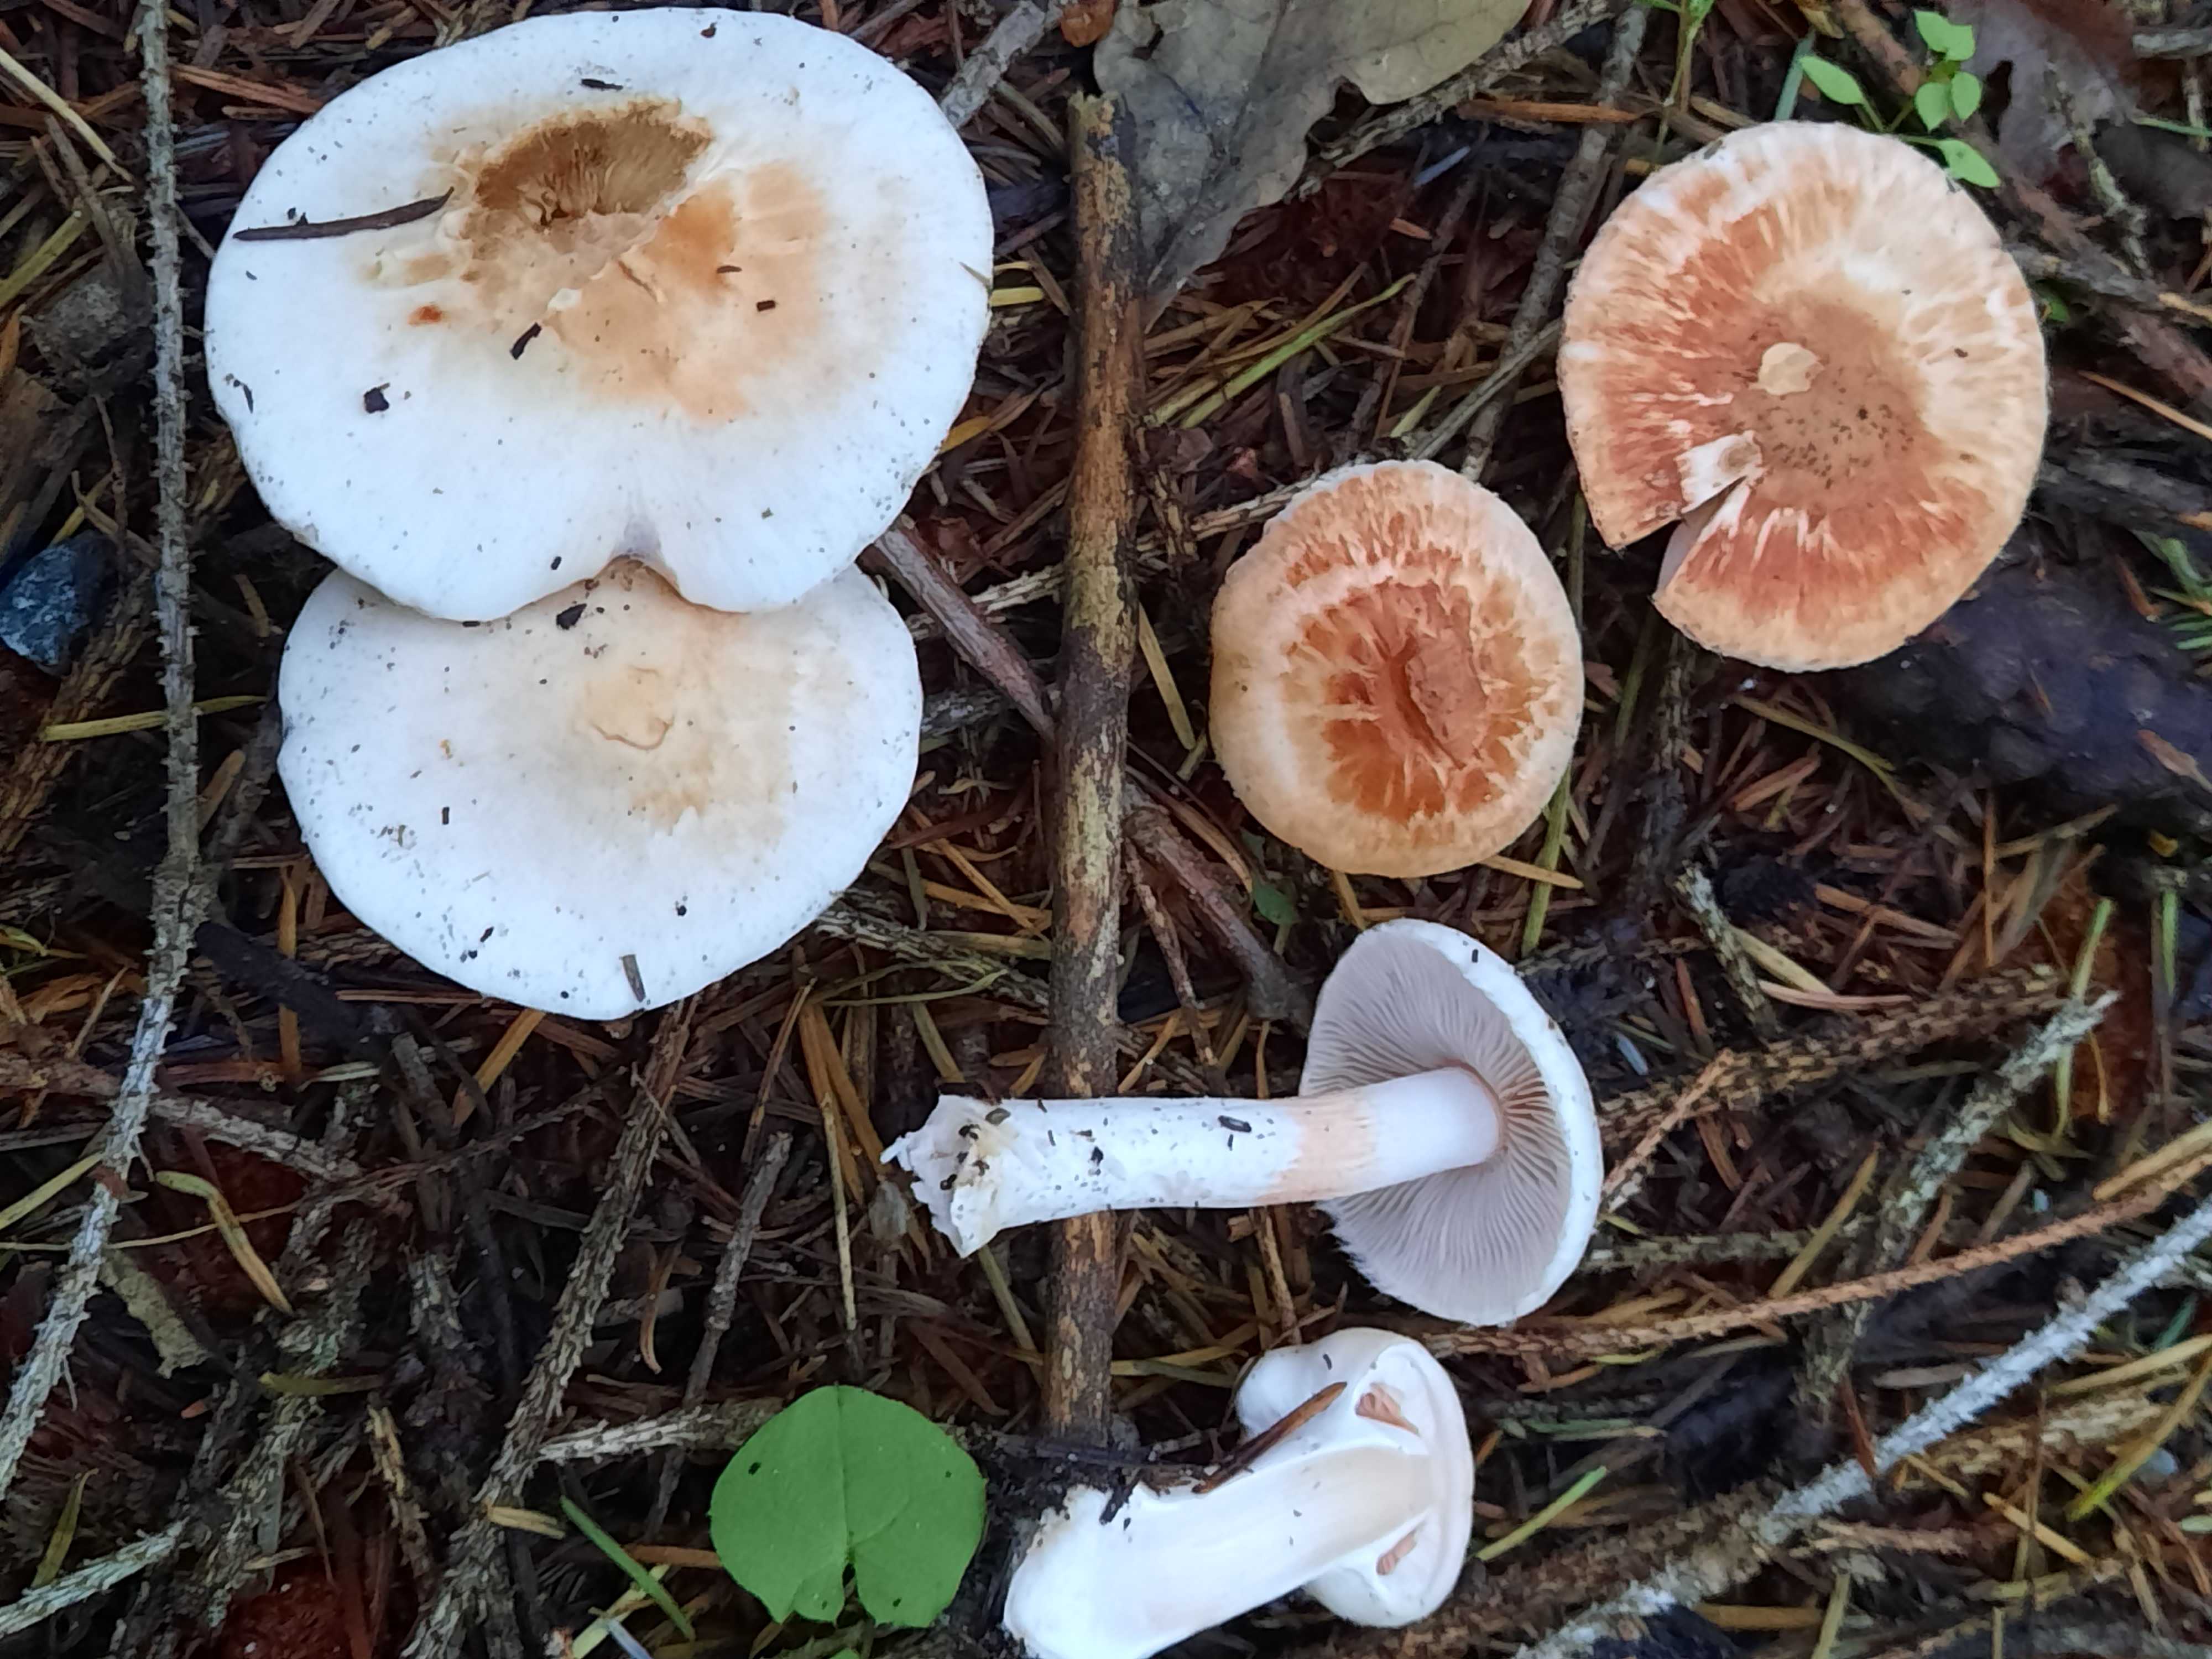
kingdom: Fungi
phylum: Basidiomycota
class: Agaricomycetes
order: Agaricales
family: Inocybaceae
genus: Inocybe
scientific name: Inocybe whitei
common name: Blushing fibrecap
